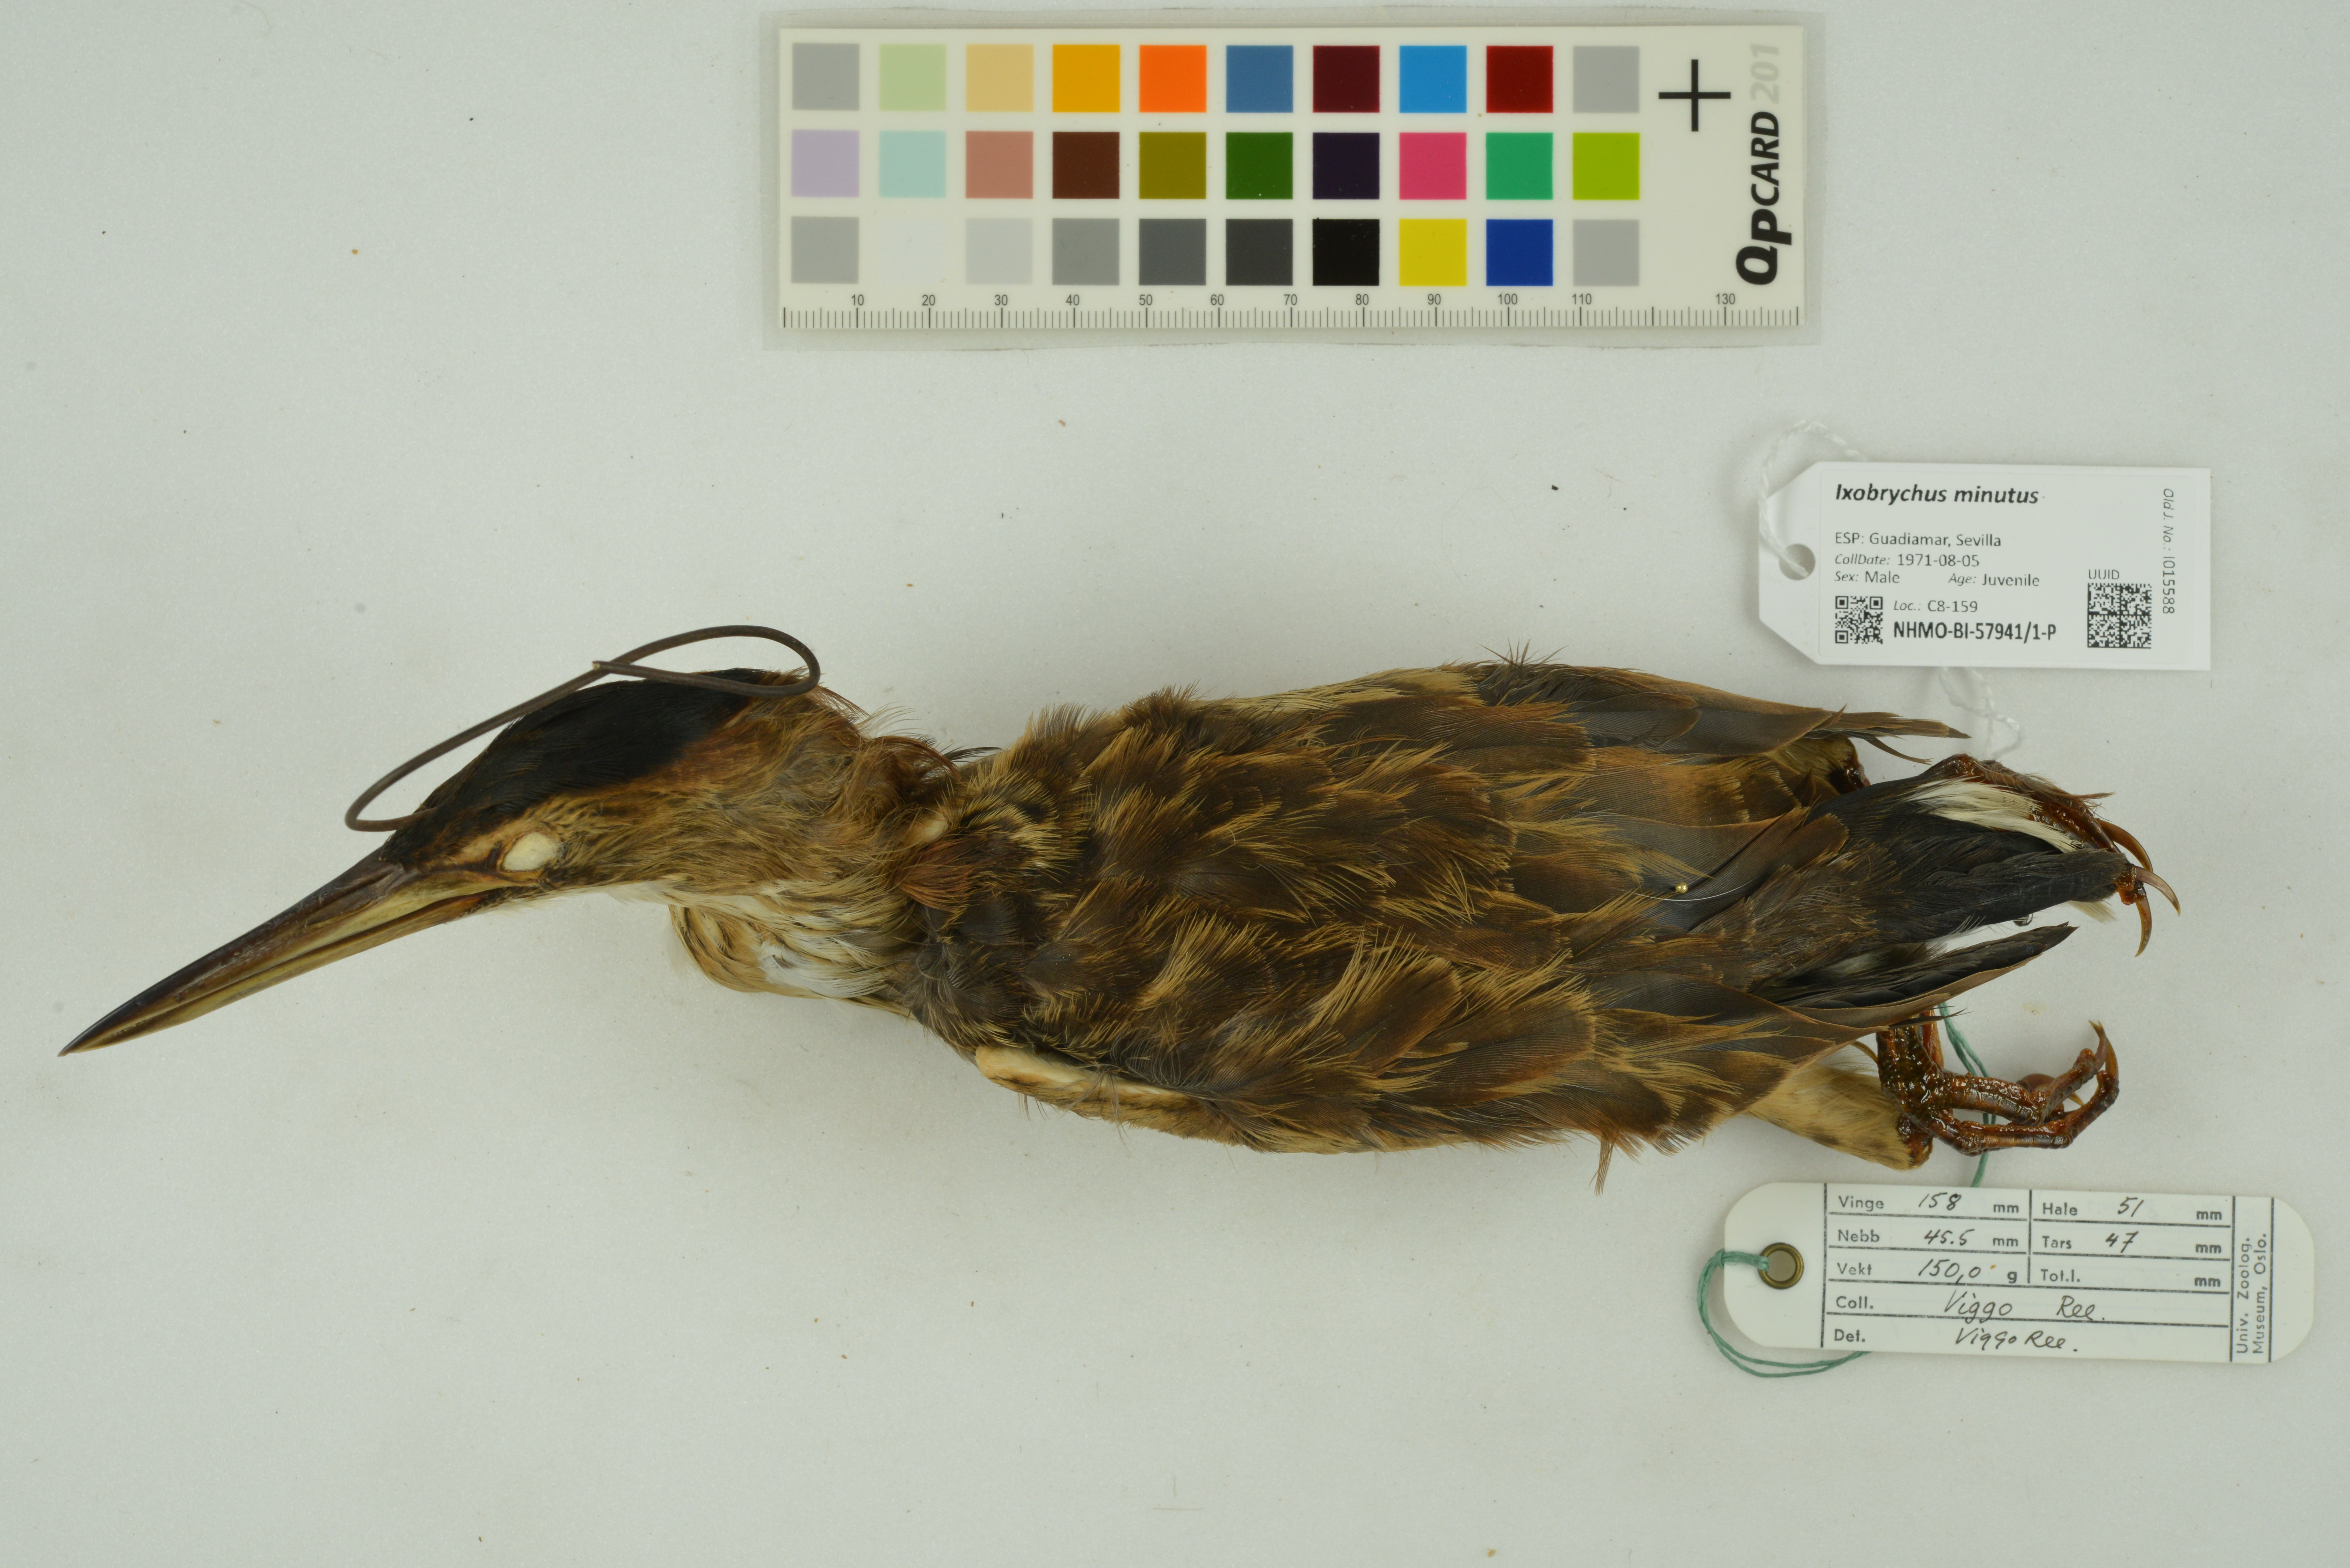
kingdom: Animalia
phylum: Chordata
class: Aves
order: Pelecaniformes
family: Ardeidae
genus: Ixobrychus
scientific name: Ixobrychus minutus
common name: Little bittern
